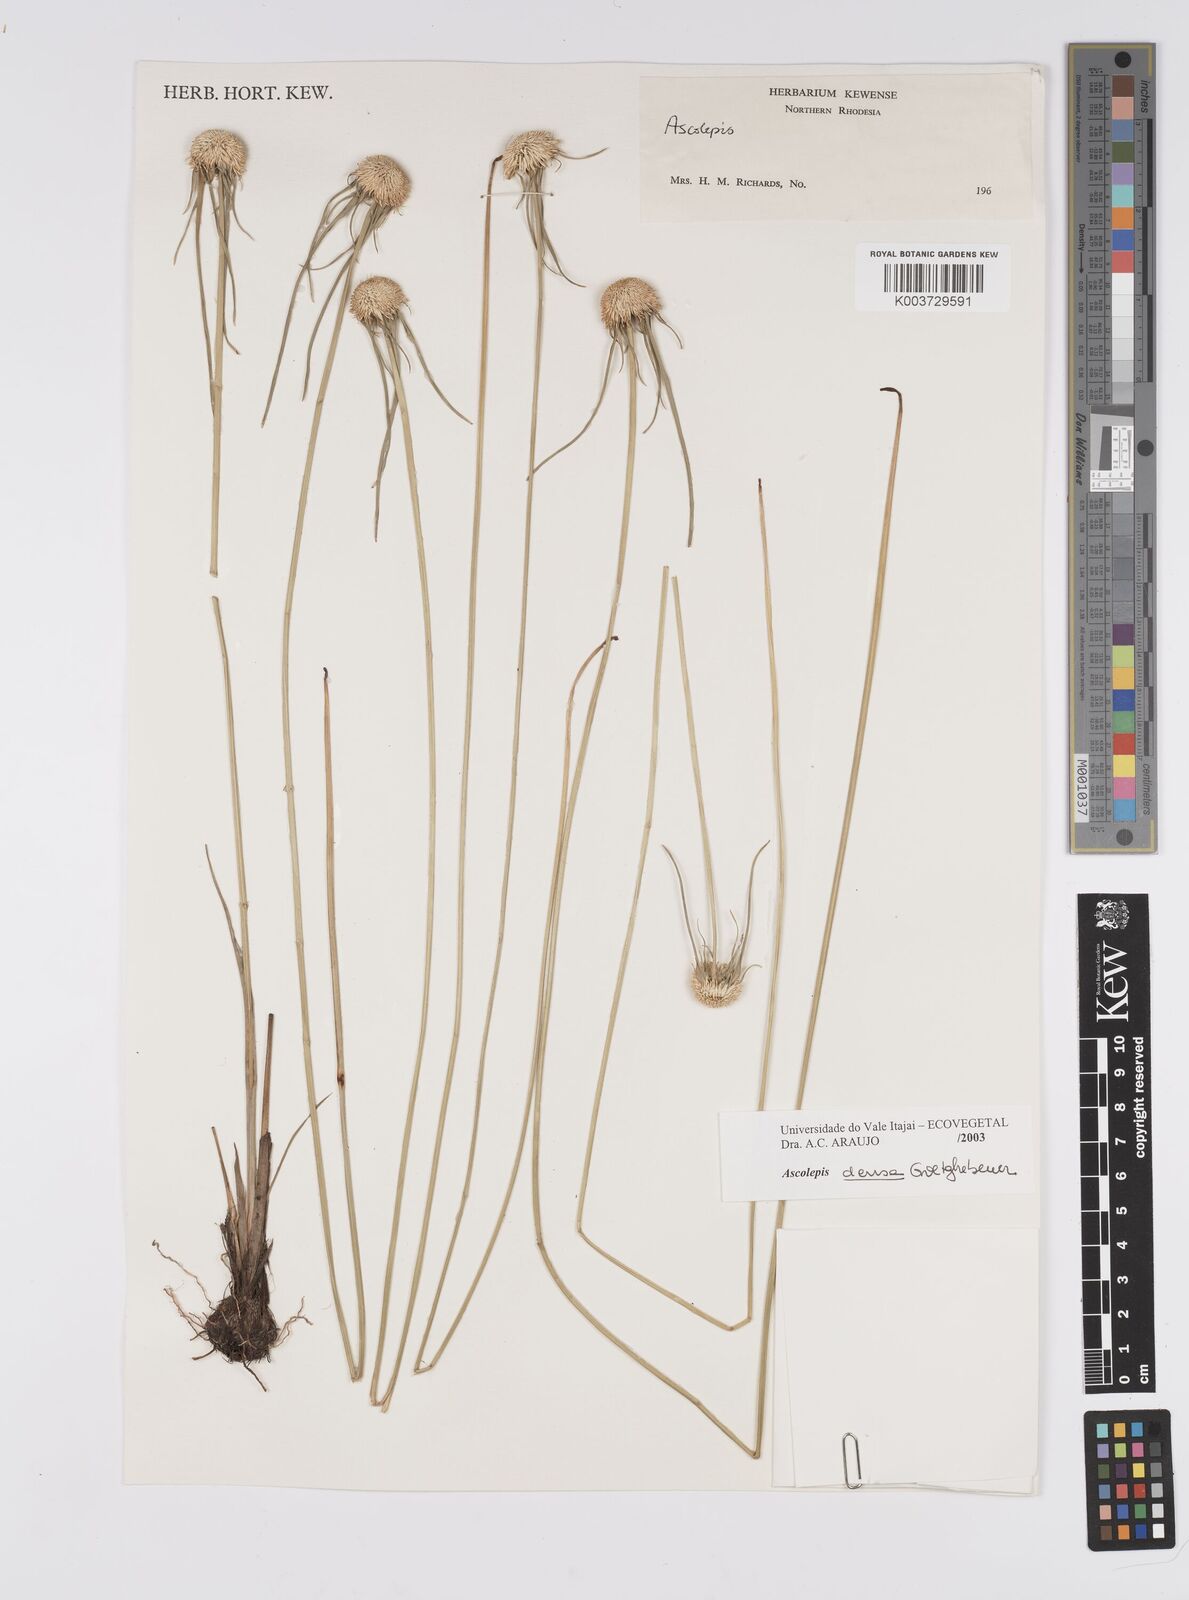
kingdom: Plantae
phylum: Tracheophyta
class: Liliopsida
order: Poales
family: Cyperaceae
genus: Cyperus
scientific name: Cyperus
